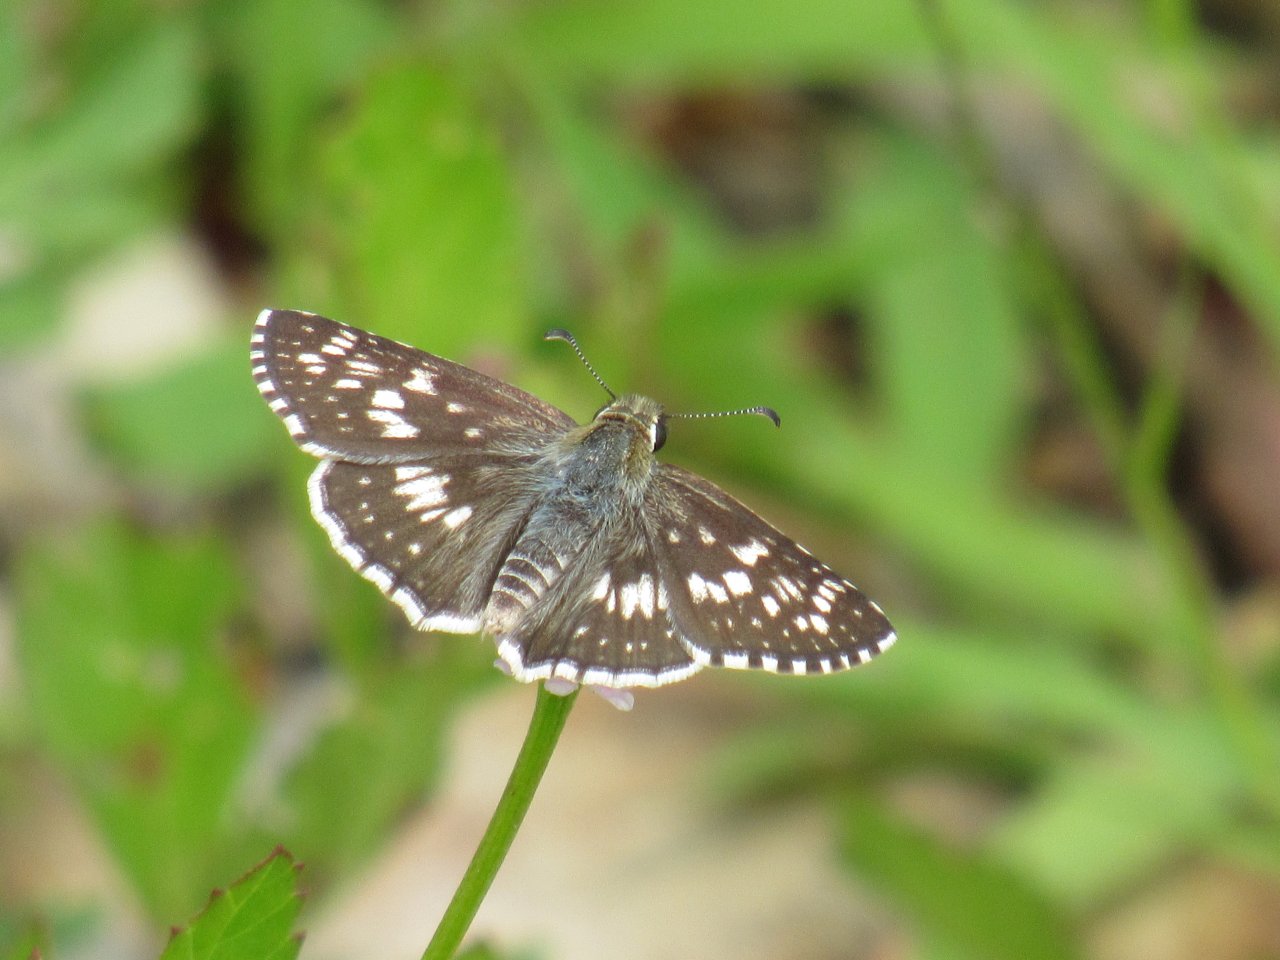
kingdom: Animalia
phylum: Arthropoda
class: Insecta
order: Lepidoptera
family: Hesperiidae
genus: Pyrgus
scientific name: Pyrgus communis
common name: Common Checkered-Skipper
